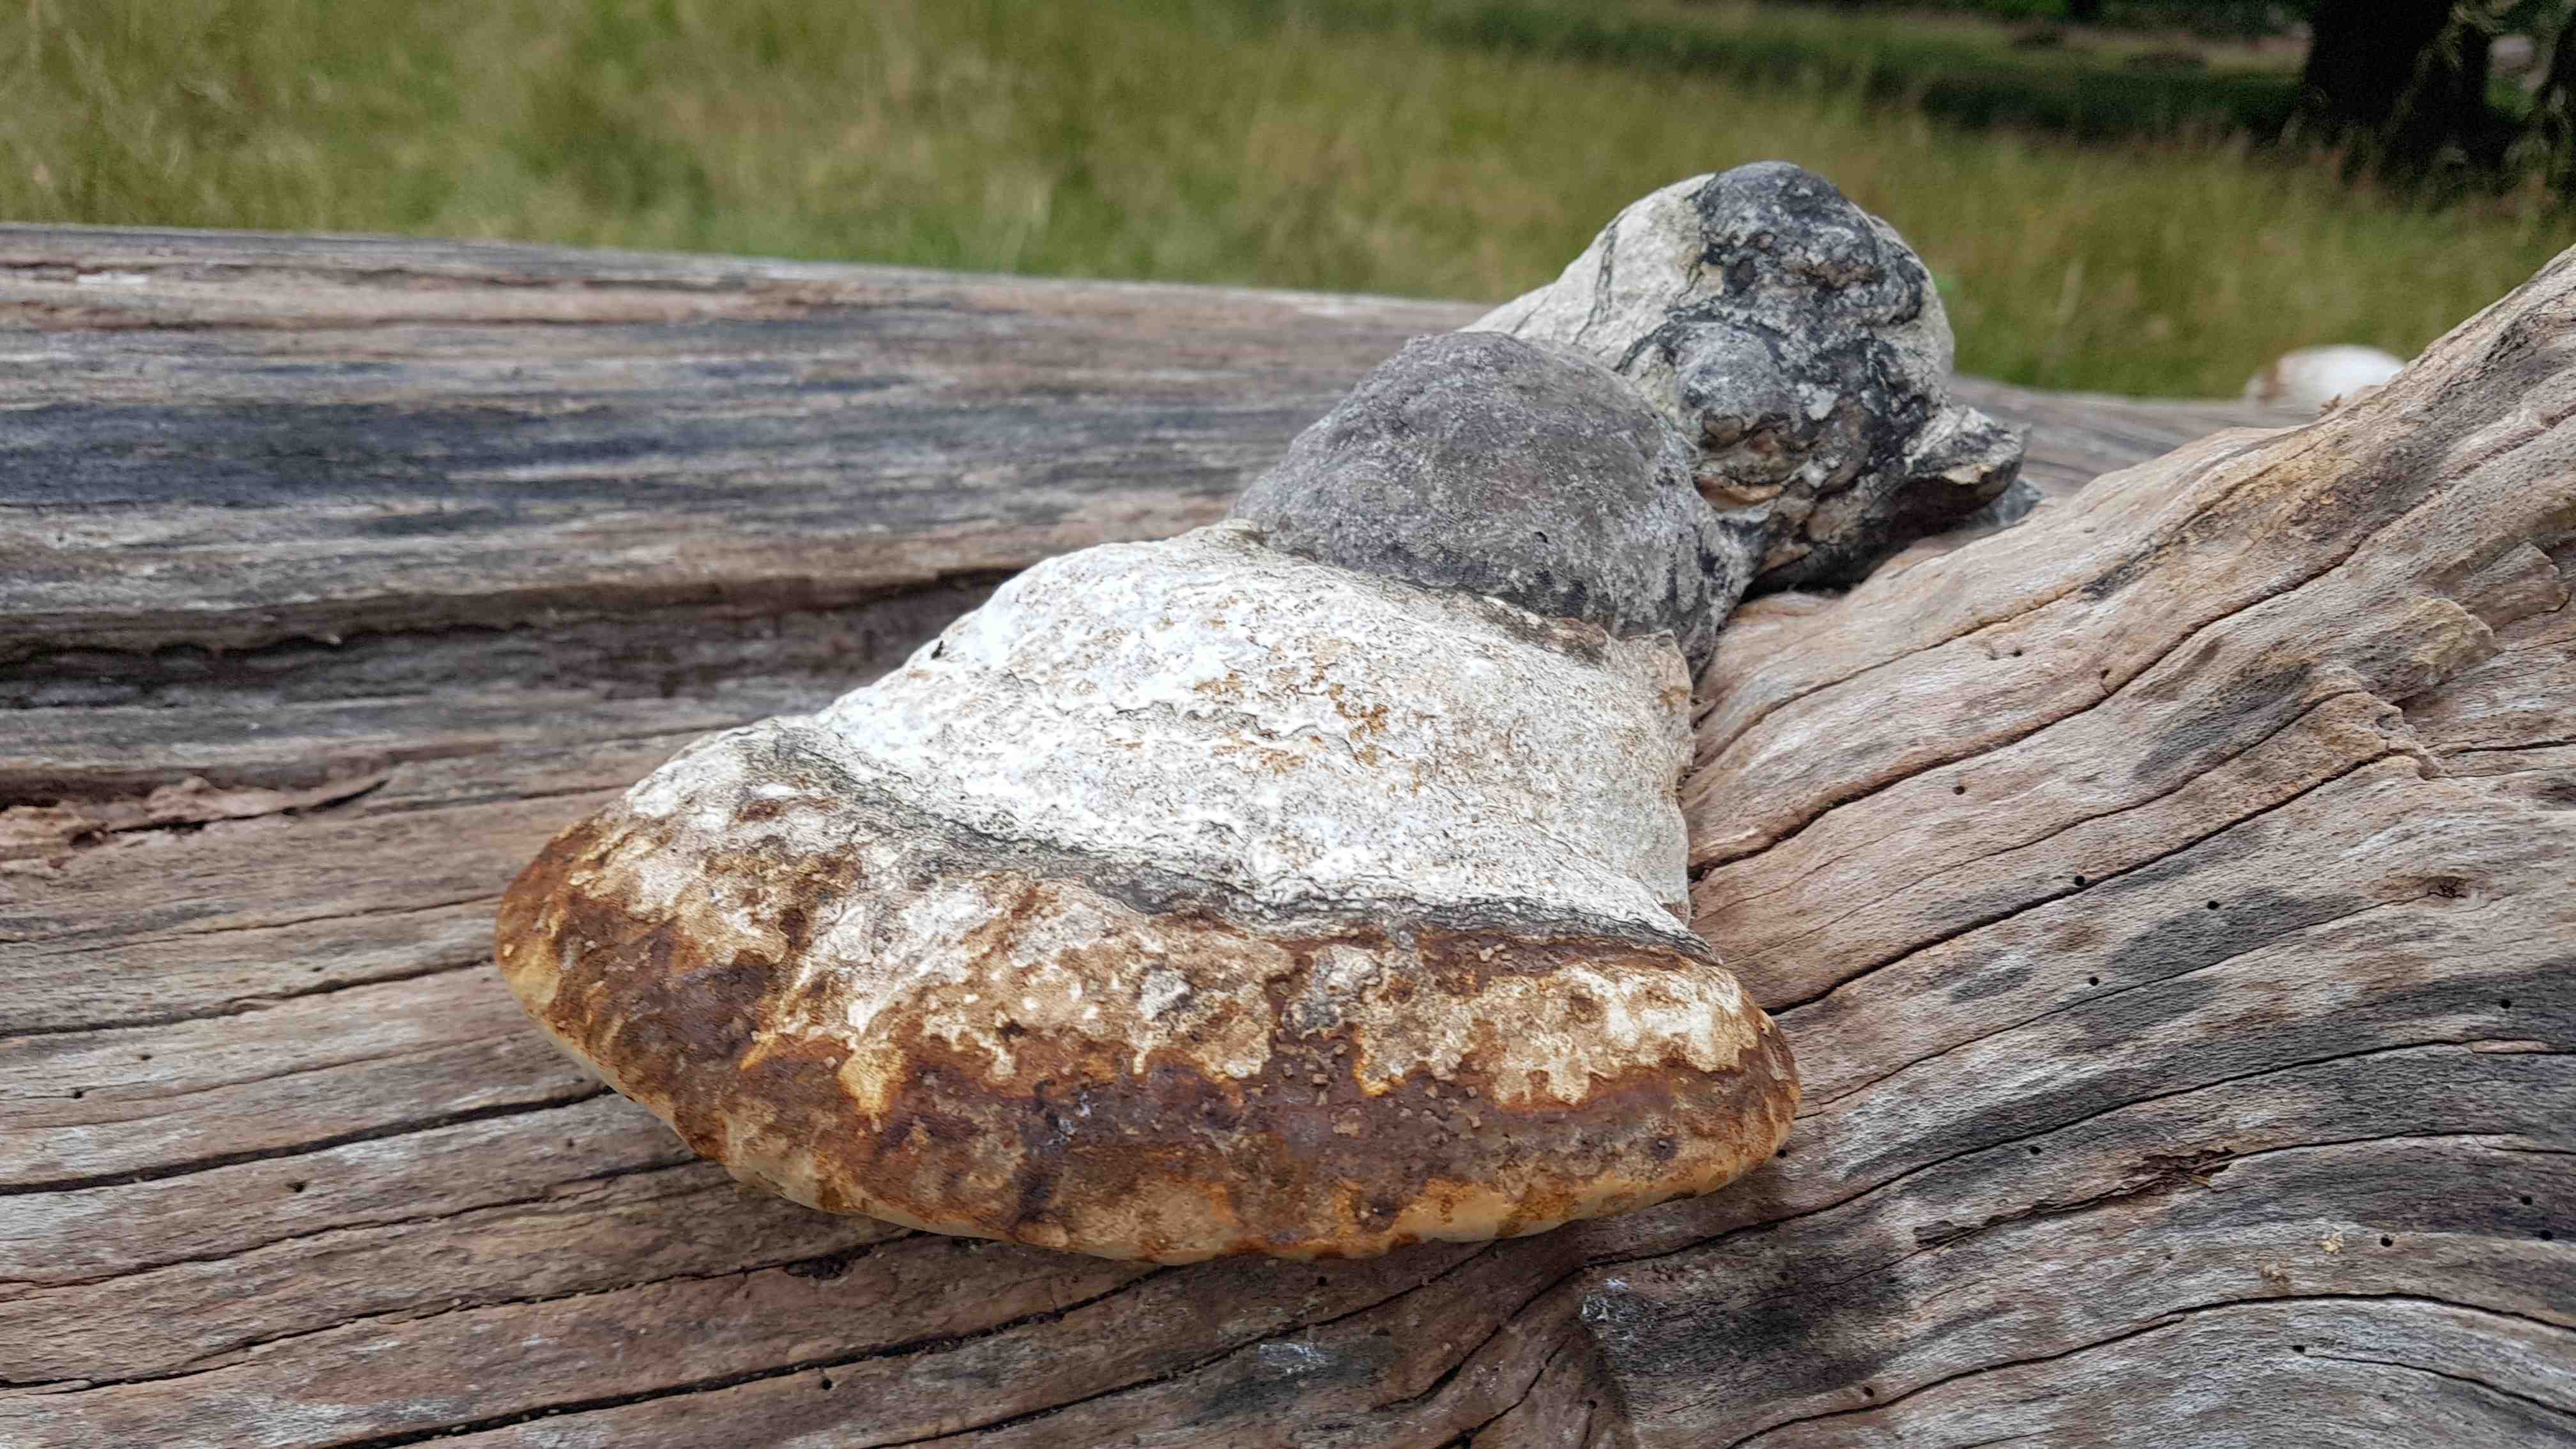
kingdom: Fungi
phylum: Basidiomycota
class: Agaricomycetes
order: Polyporales
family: Polyporaceae
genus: Fomes
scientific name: Fomes fomentarius
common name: tøndersvamp
